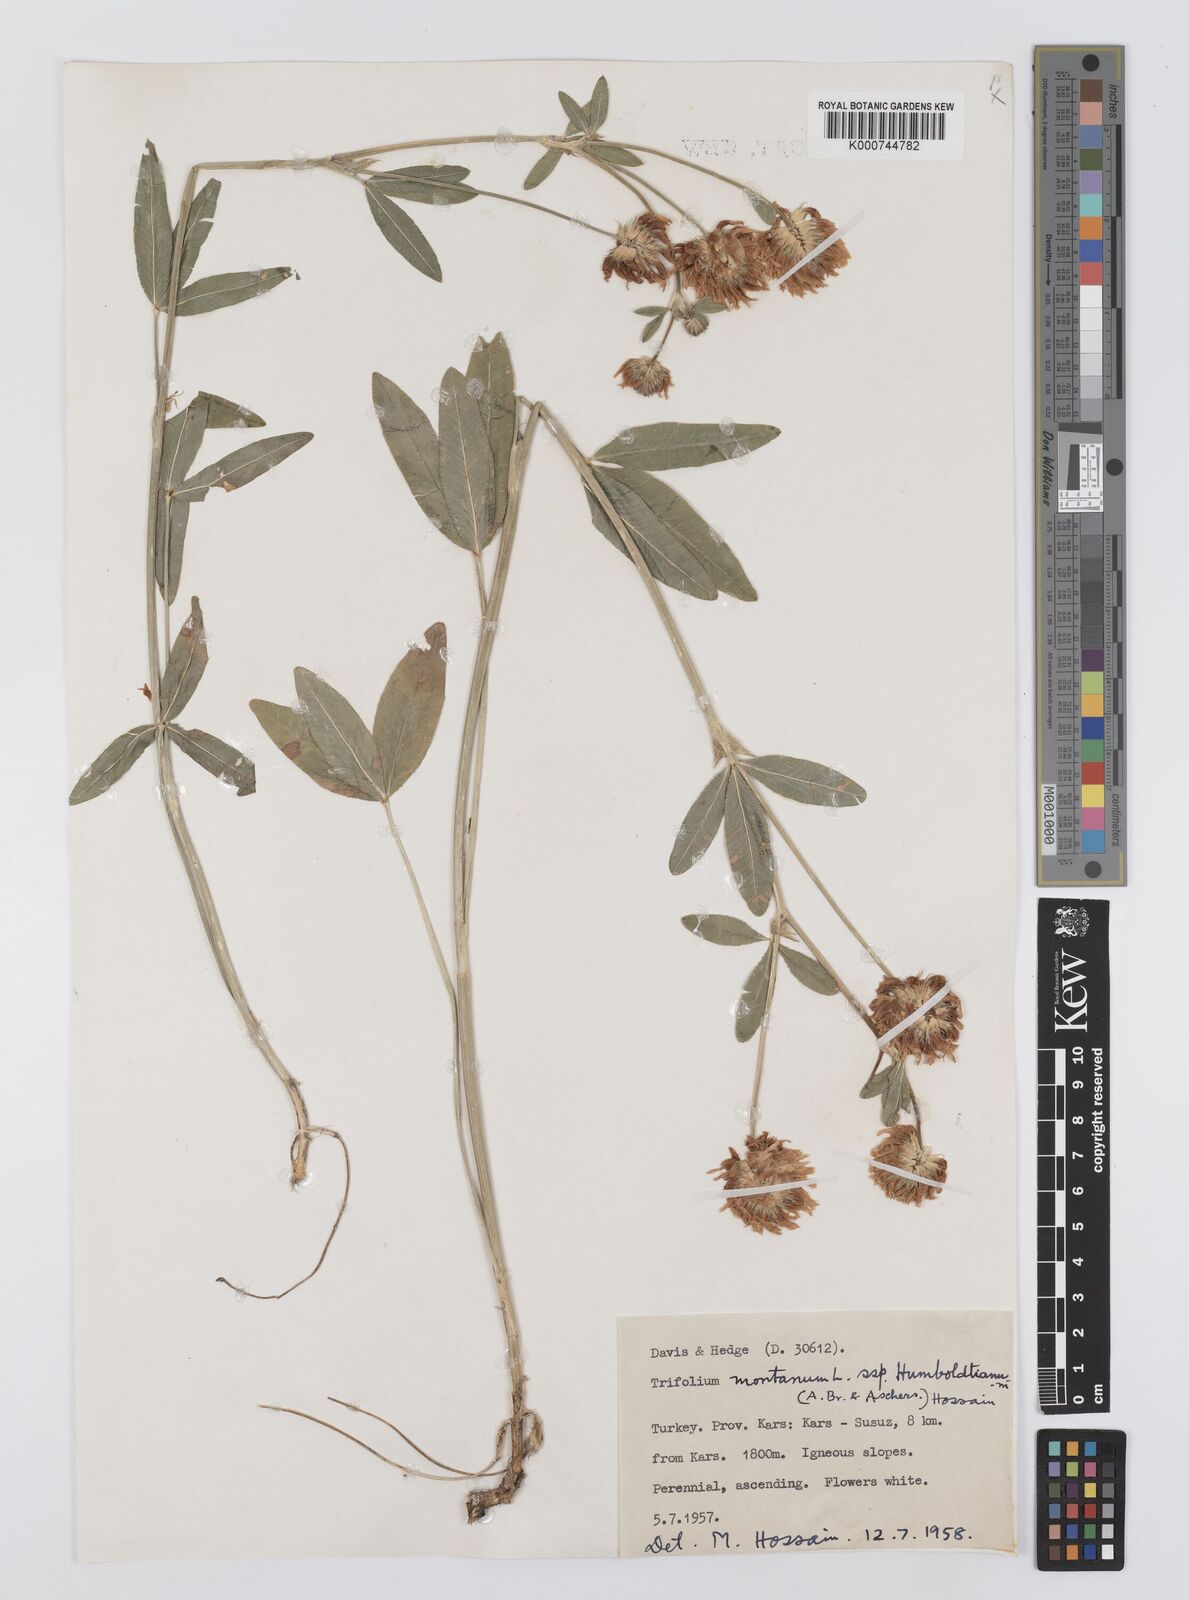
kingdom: Plantae
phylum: Tracheophyta
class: Magnoliopsida
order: Fabales
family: Fabaceae
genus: Trifolium
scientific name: Trifolium
